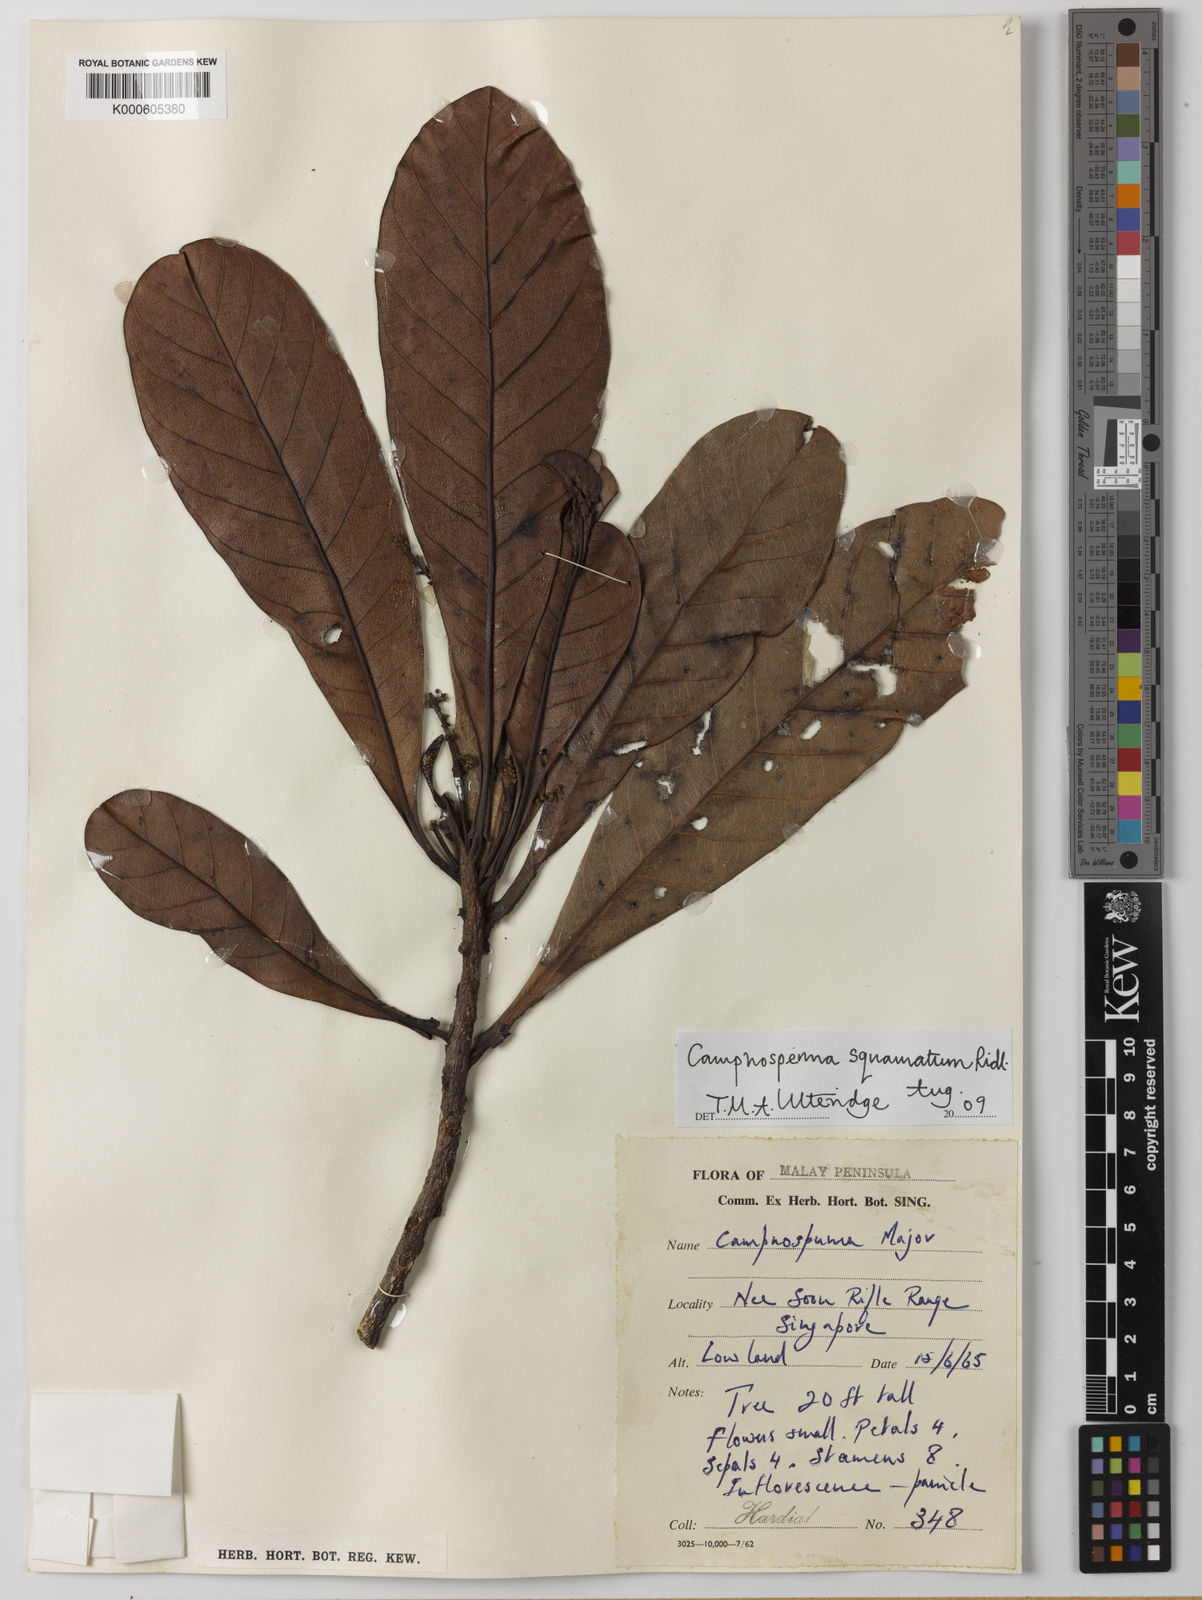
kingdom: Plantae
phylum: Tracheophyta
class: Magnoliopsida
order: Sapindales
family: Anacardiaceae
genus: Campnosperma
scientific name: Campnosperma squamatum
